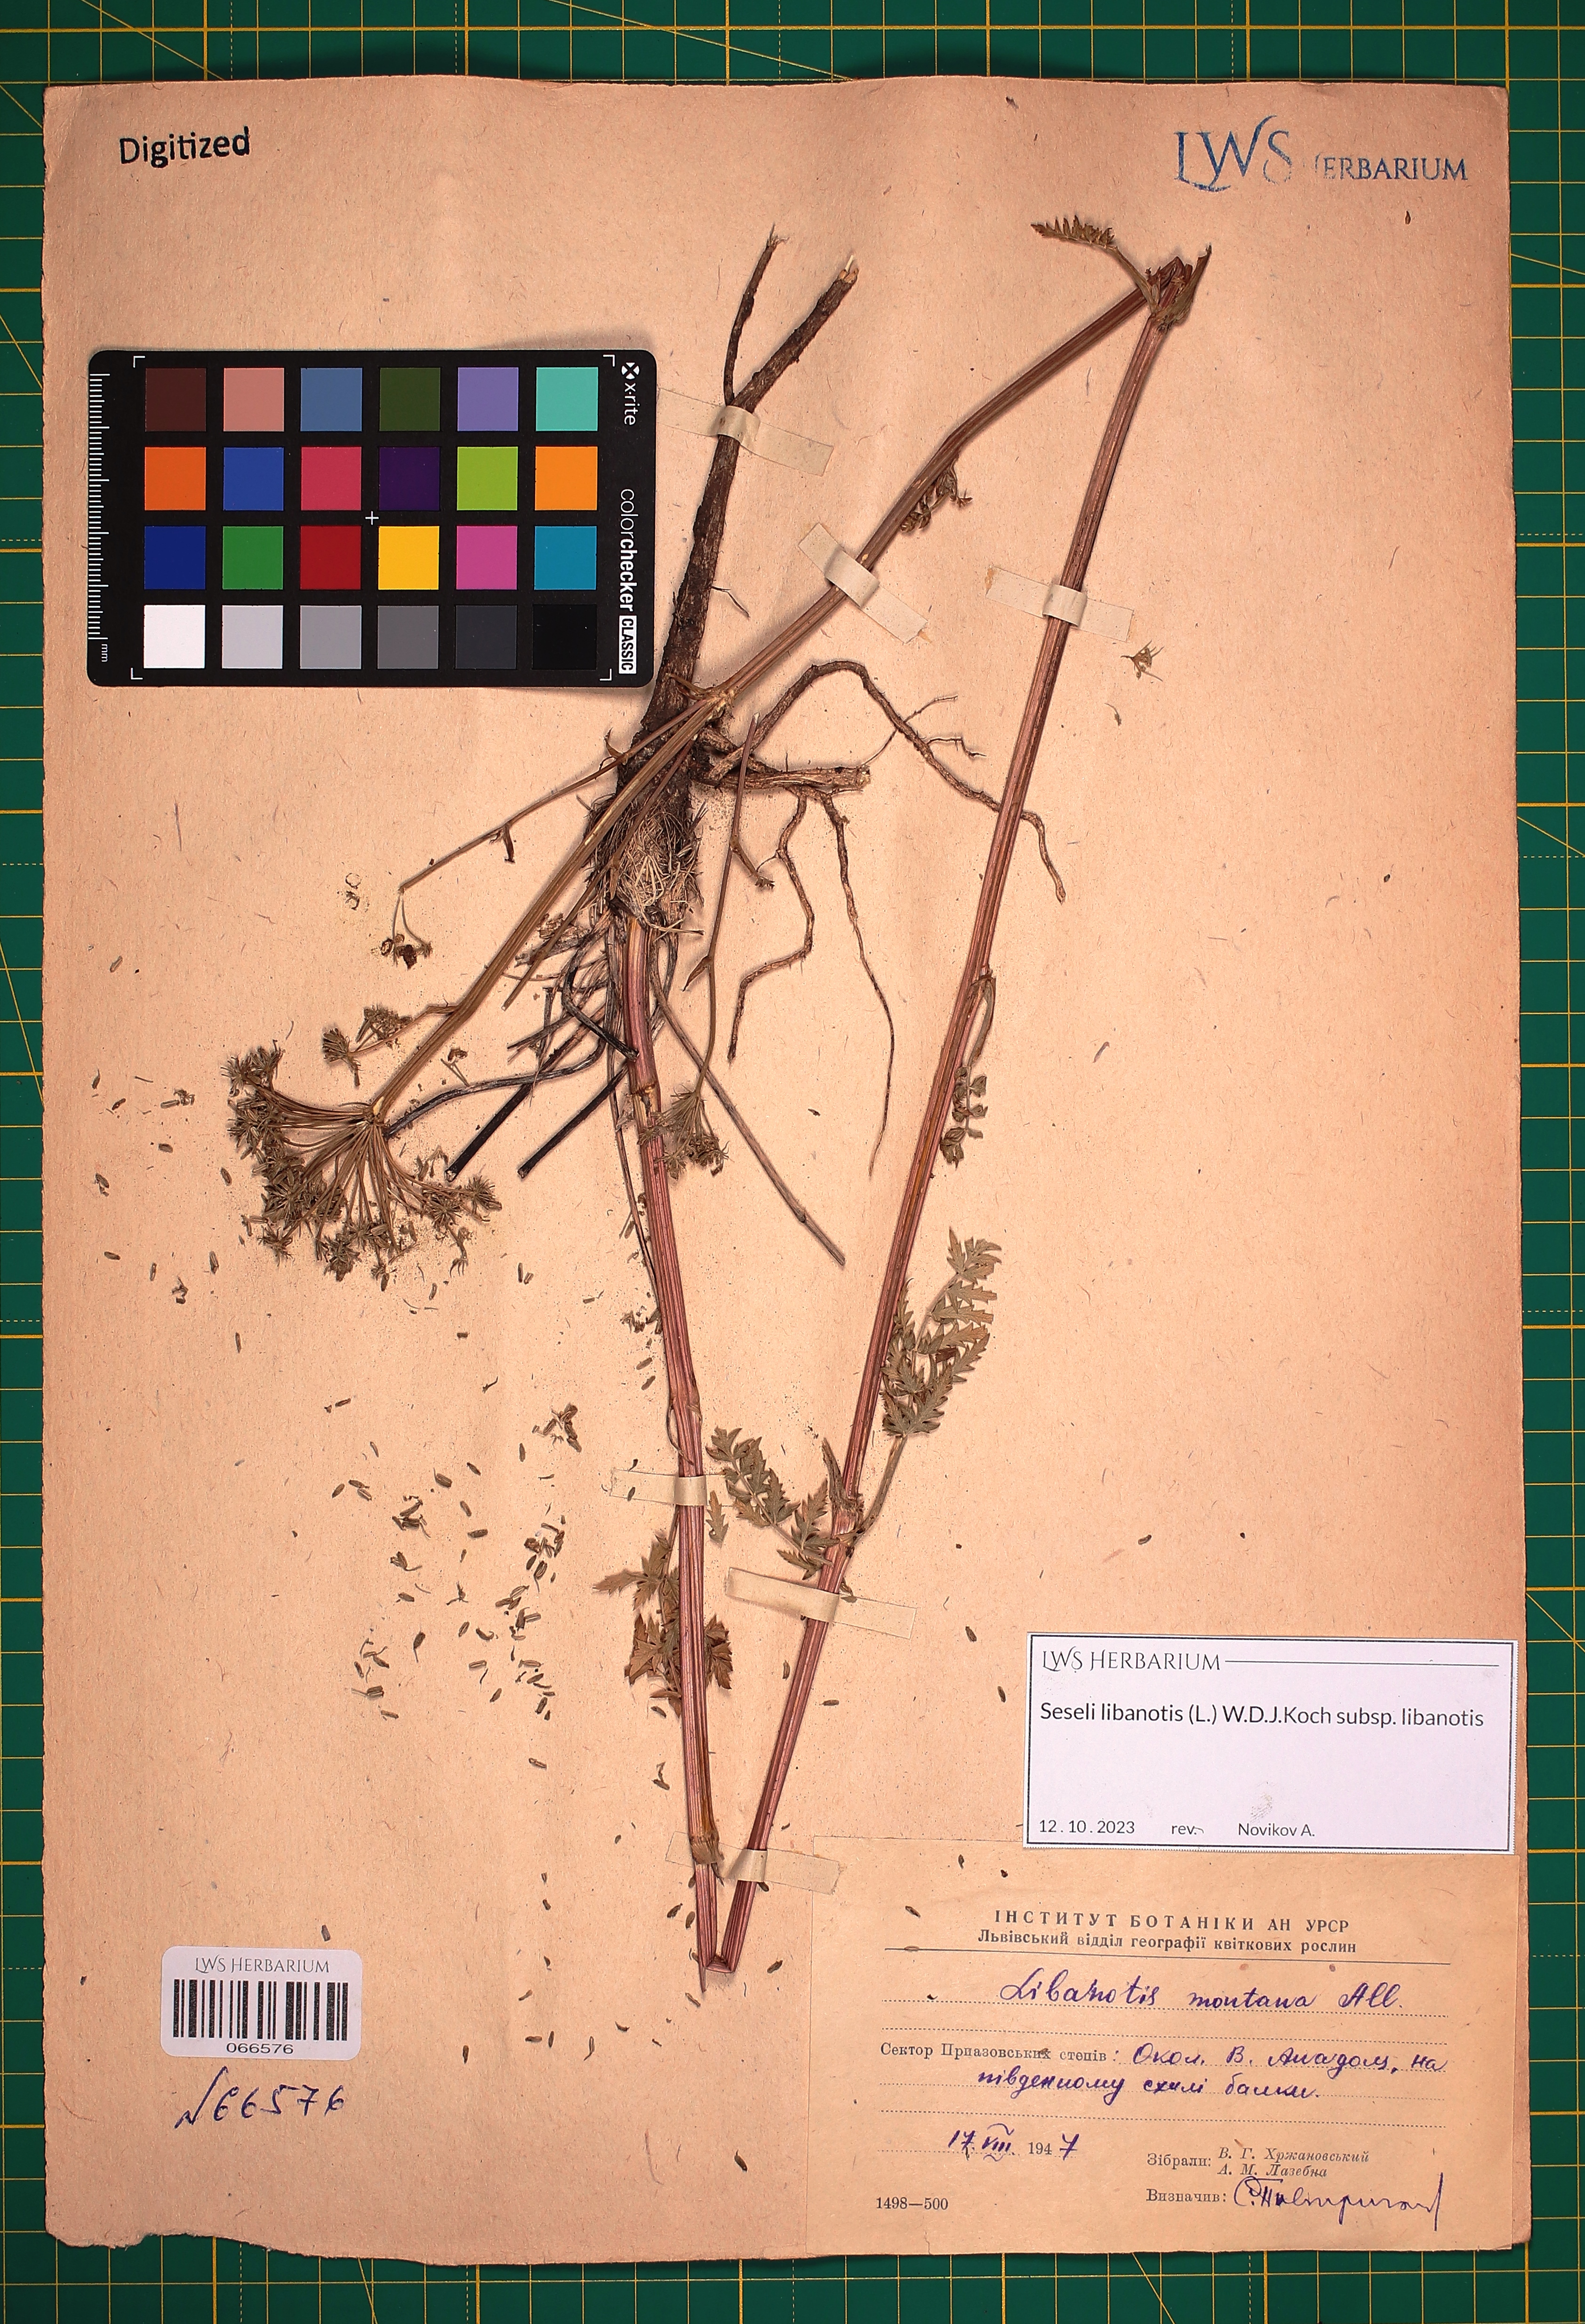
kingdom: Plantae
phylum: Tracheophyta
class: Magnoliopsida
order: Apiales
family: Apiaceae
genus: Seseli
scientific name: Seseli libanotis
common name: Mooncarrot
